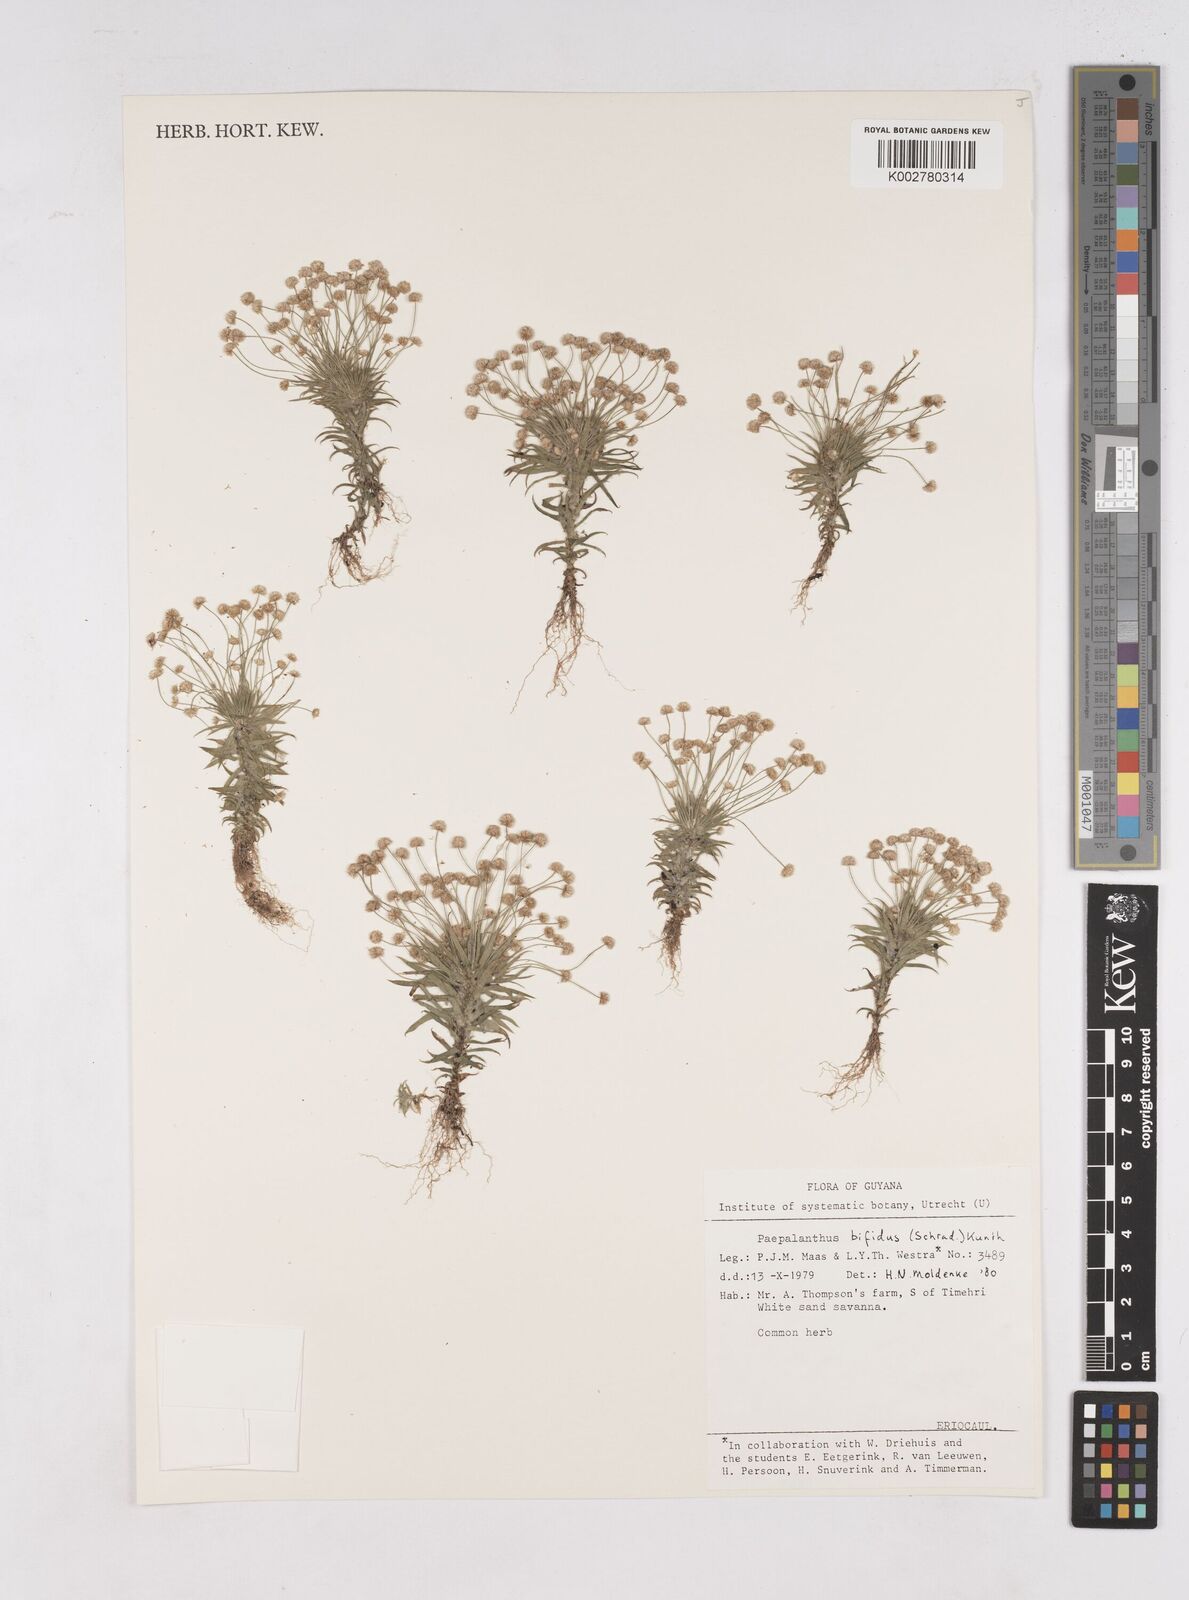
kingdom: Plantae
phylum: Tracheophyta
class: Liliopsida
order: Poales
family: Eriocaulaceae
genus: Paepalanthus
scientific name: Paepalanthus bifidus
